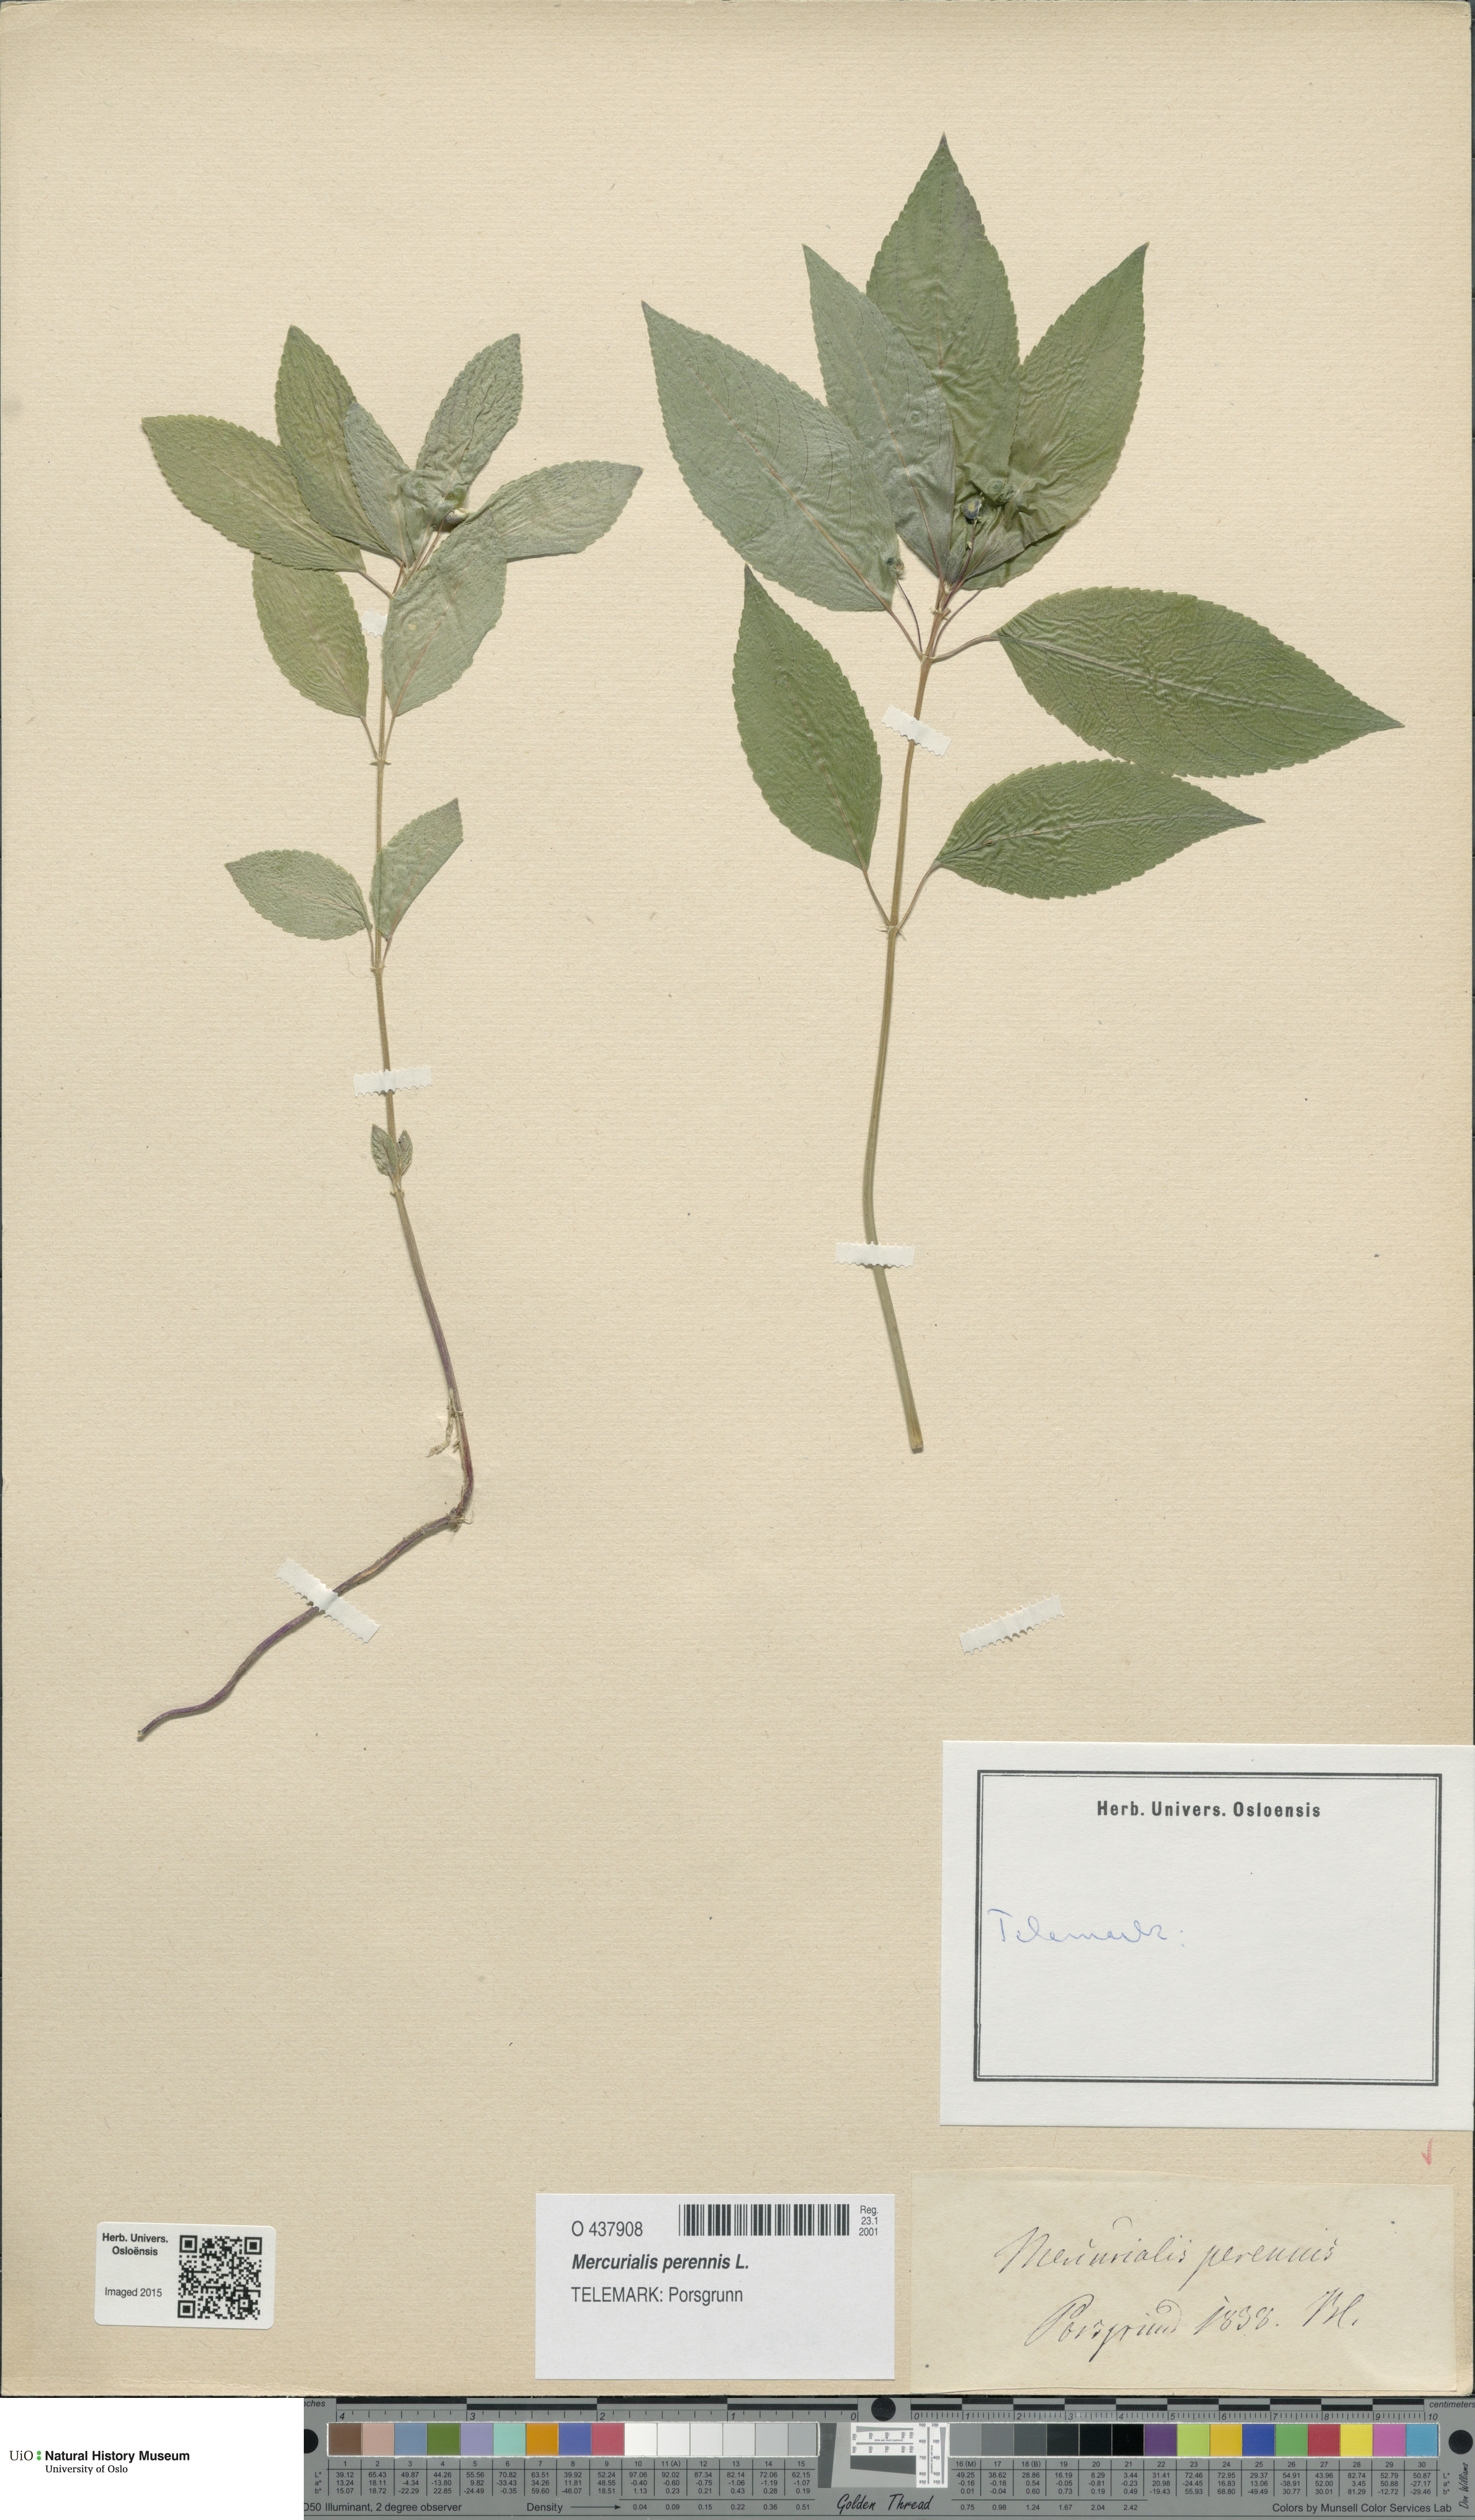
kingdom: Plantae
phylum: Tracheophyta
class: Magnoliopsida
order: Malpighiales
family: Euphorbiaceae
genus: Mercurialis
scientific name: Mercurialis perennis
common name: Dog mercury
